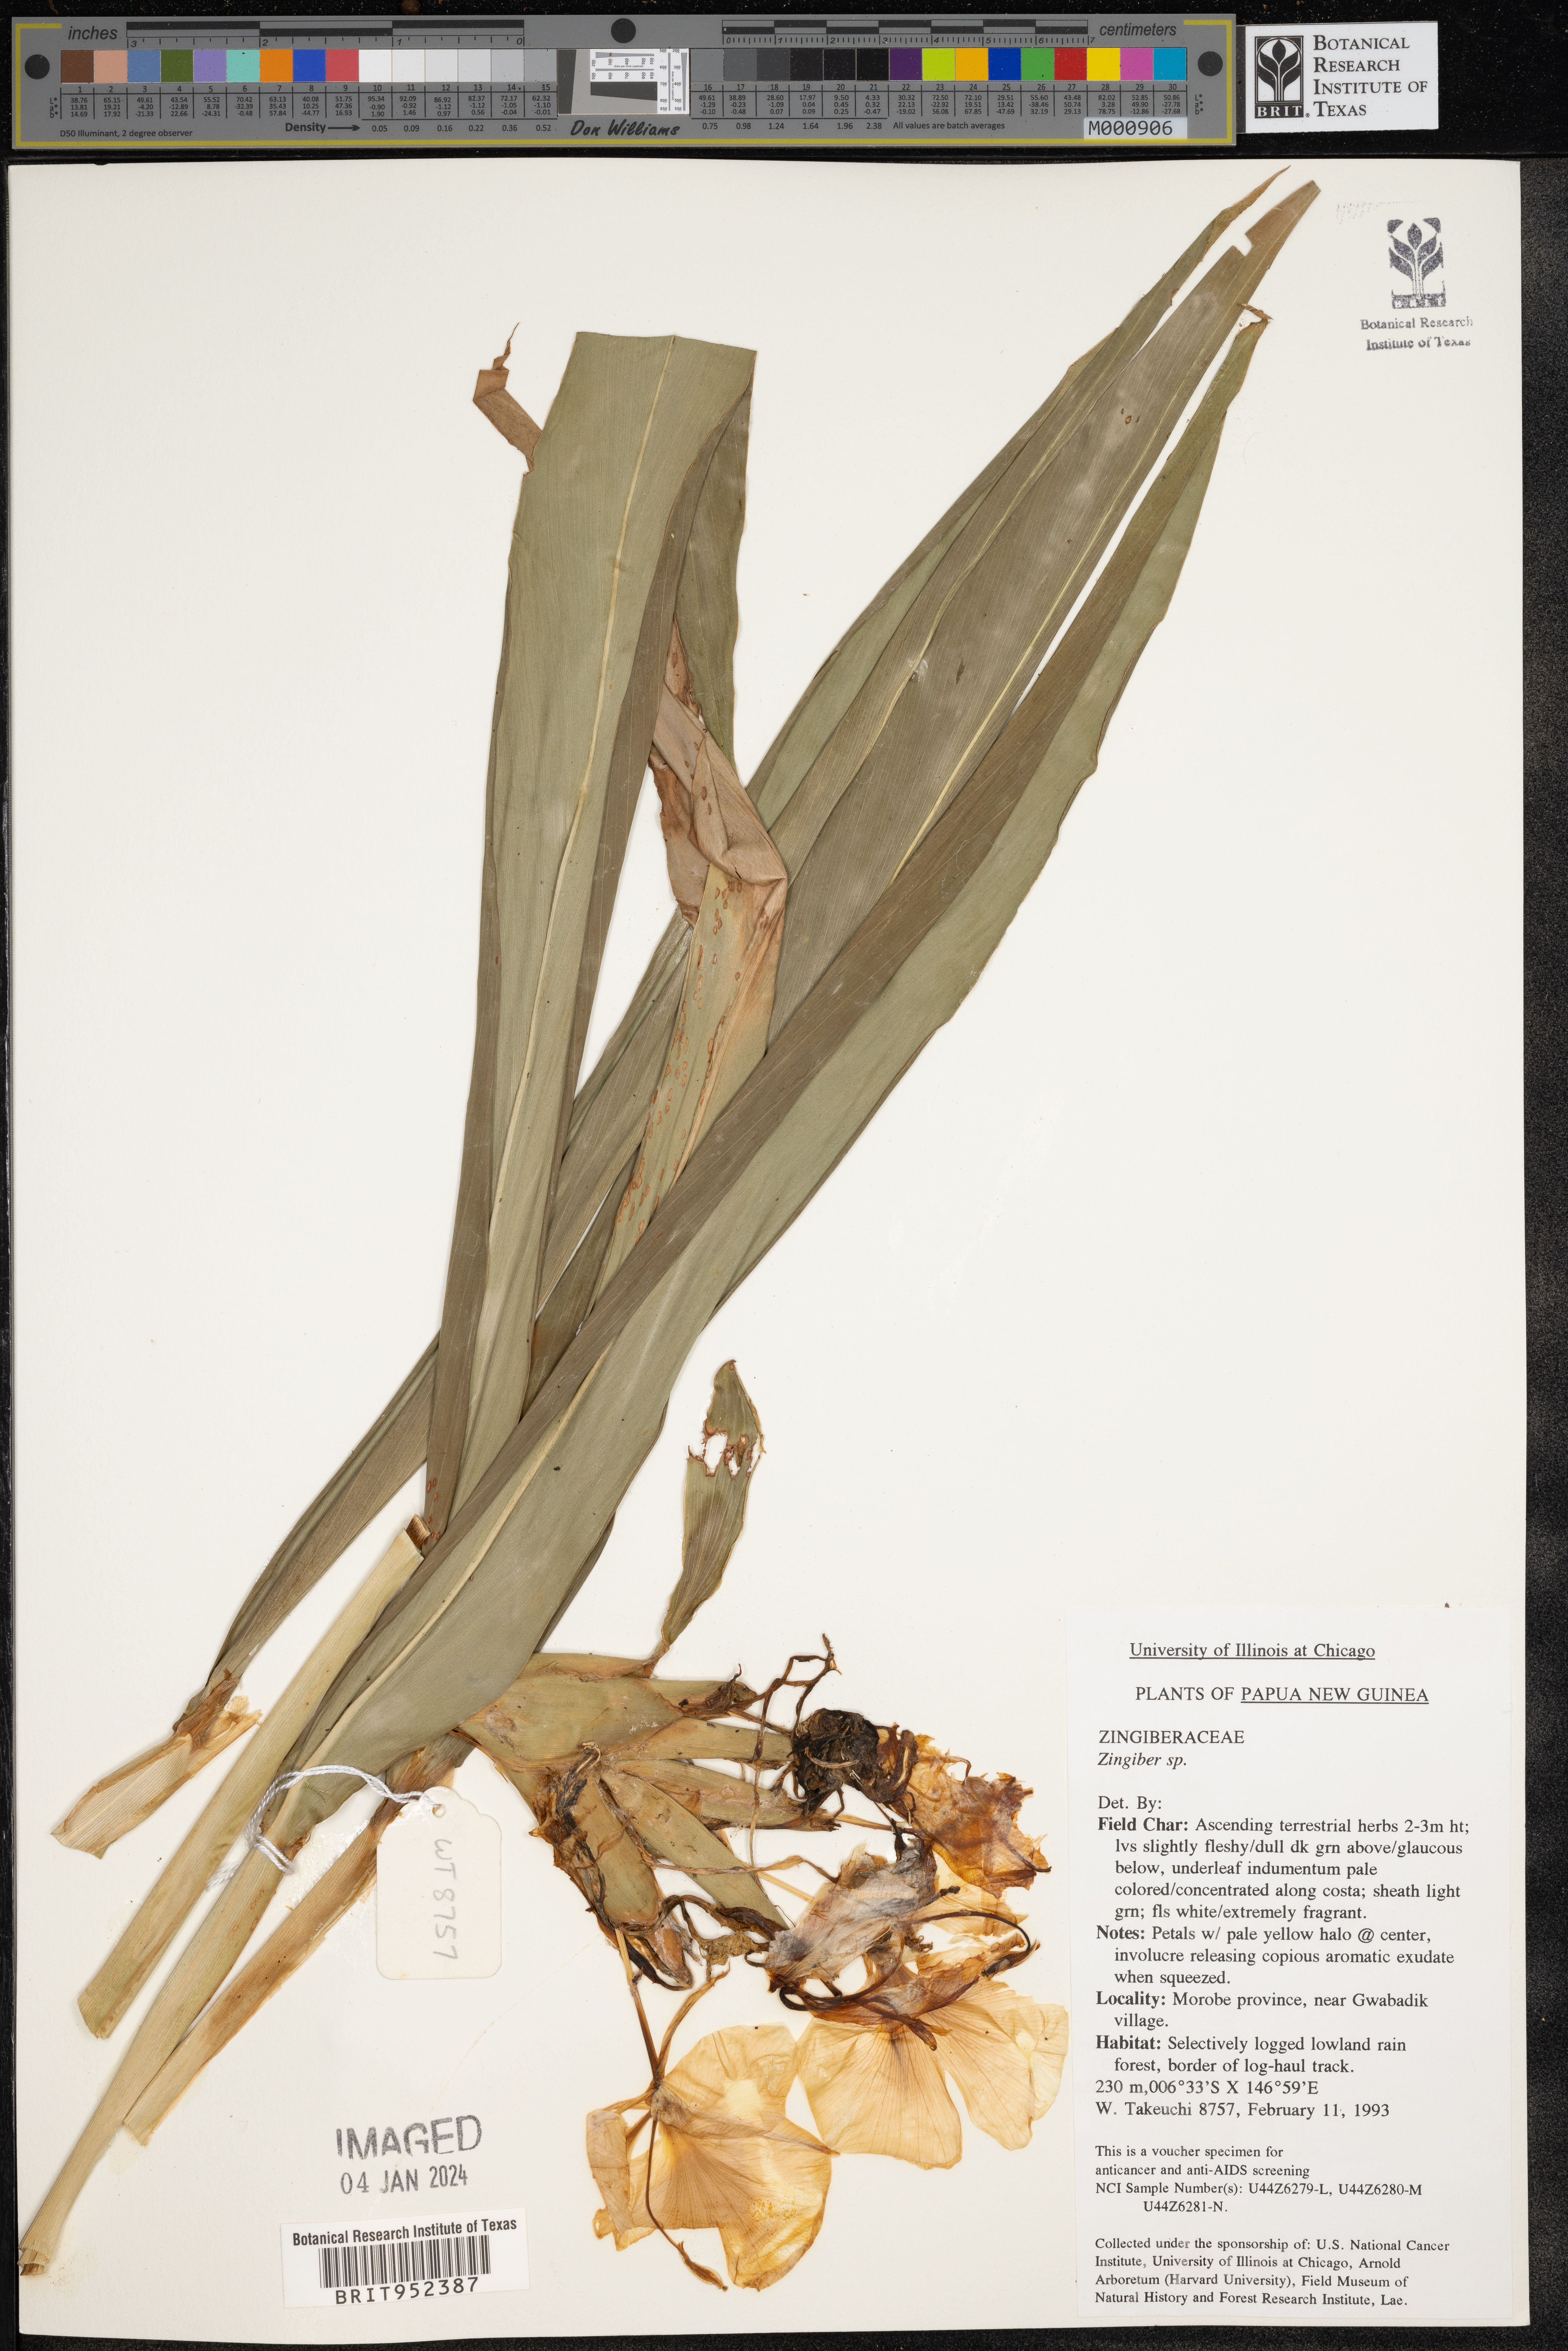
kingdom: Plantae
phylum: Tracheophyta
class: Liliopsida
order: Zingiberales
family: Zingiberaceae
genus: Zingiber
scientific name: Zingiber
